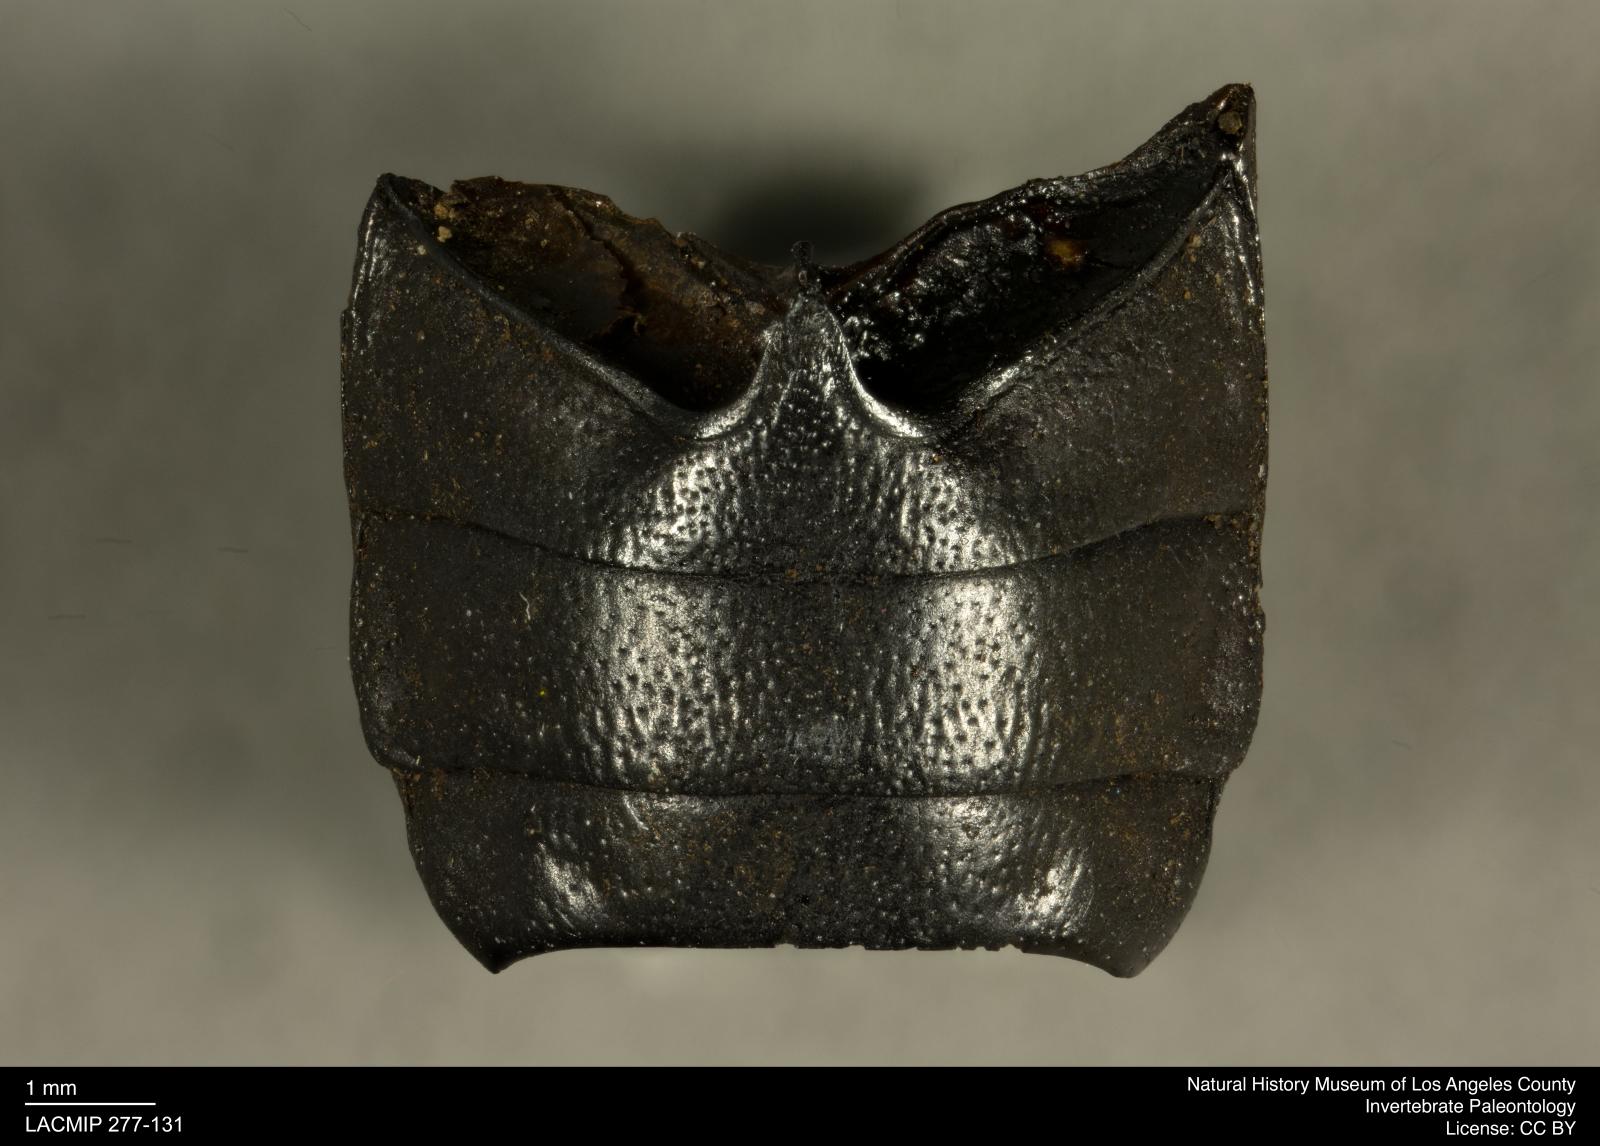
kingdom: Animalia
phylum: Arthropoda
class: Insecta
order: Coleoptera
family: Tenebrionidae
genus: Coniontis
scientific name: Coniontis abdominalis
